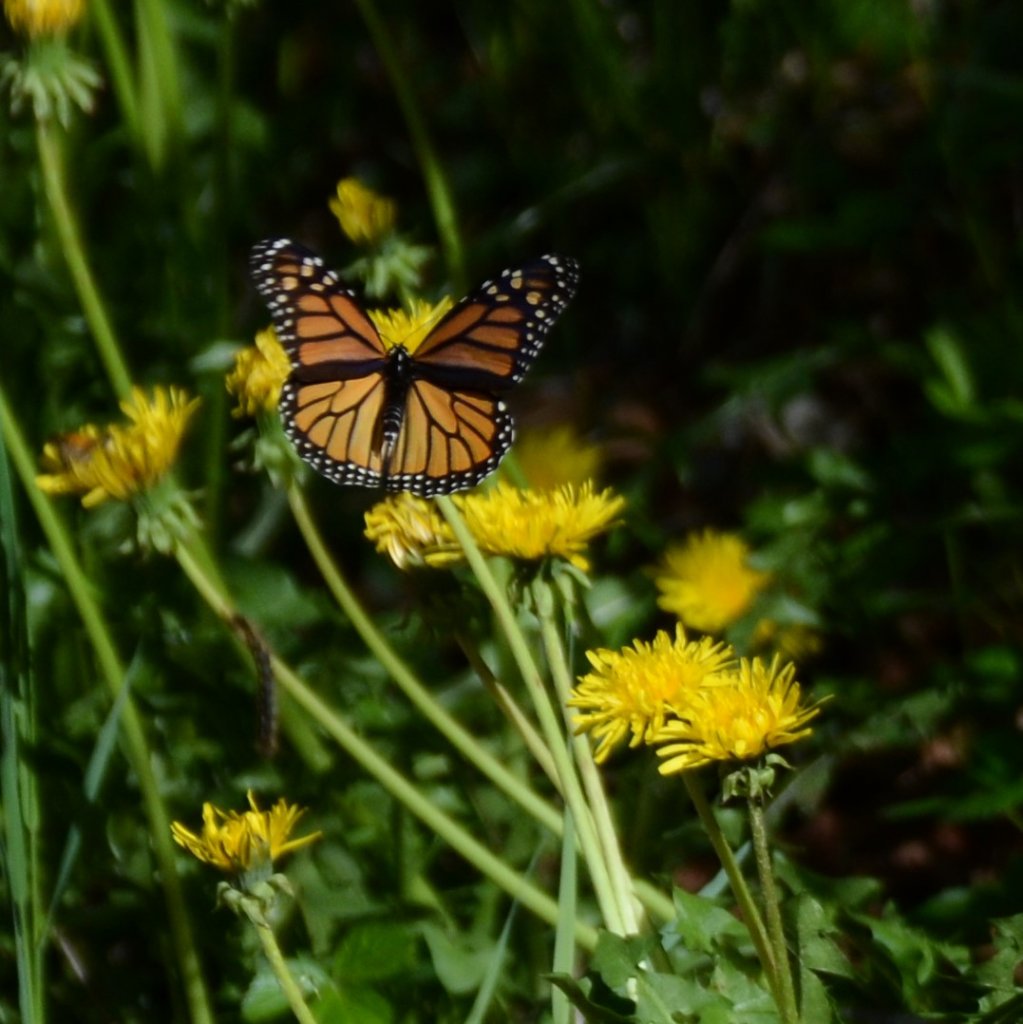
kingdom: Animalia
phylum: Arthropoda
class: Insecta
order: Lepidoptera
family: Nymphalidae
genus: Danaus
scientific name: Danaus plexippus
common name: Monarch
